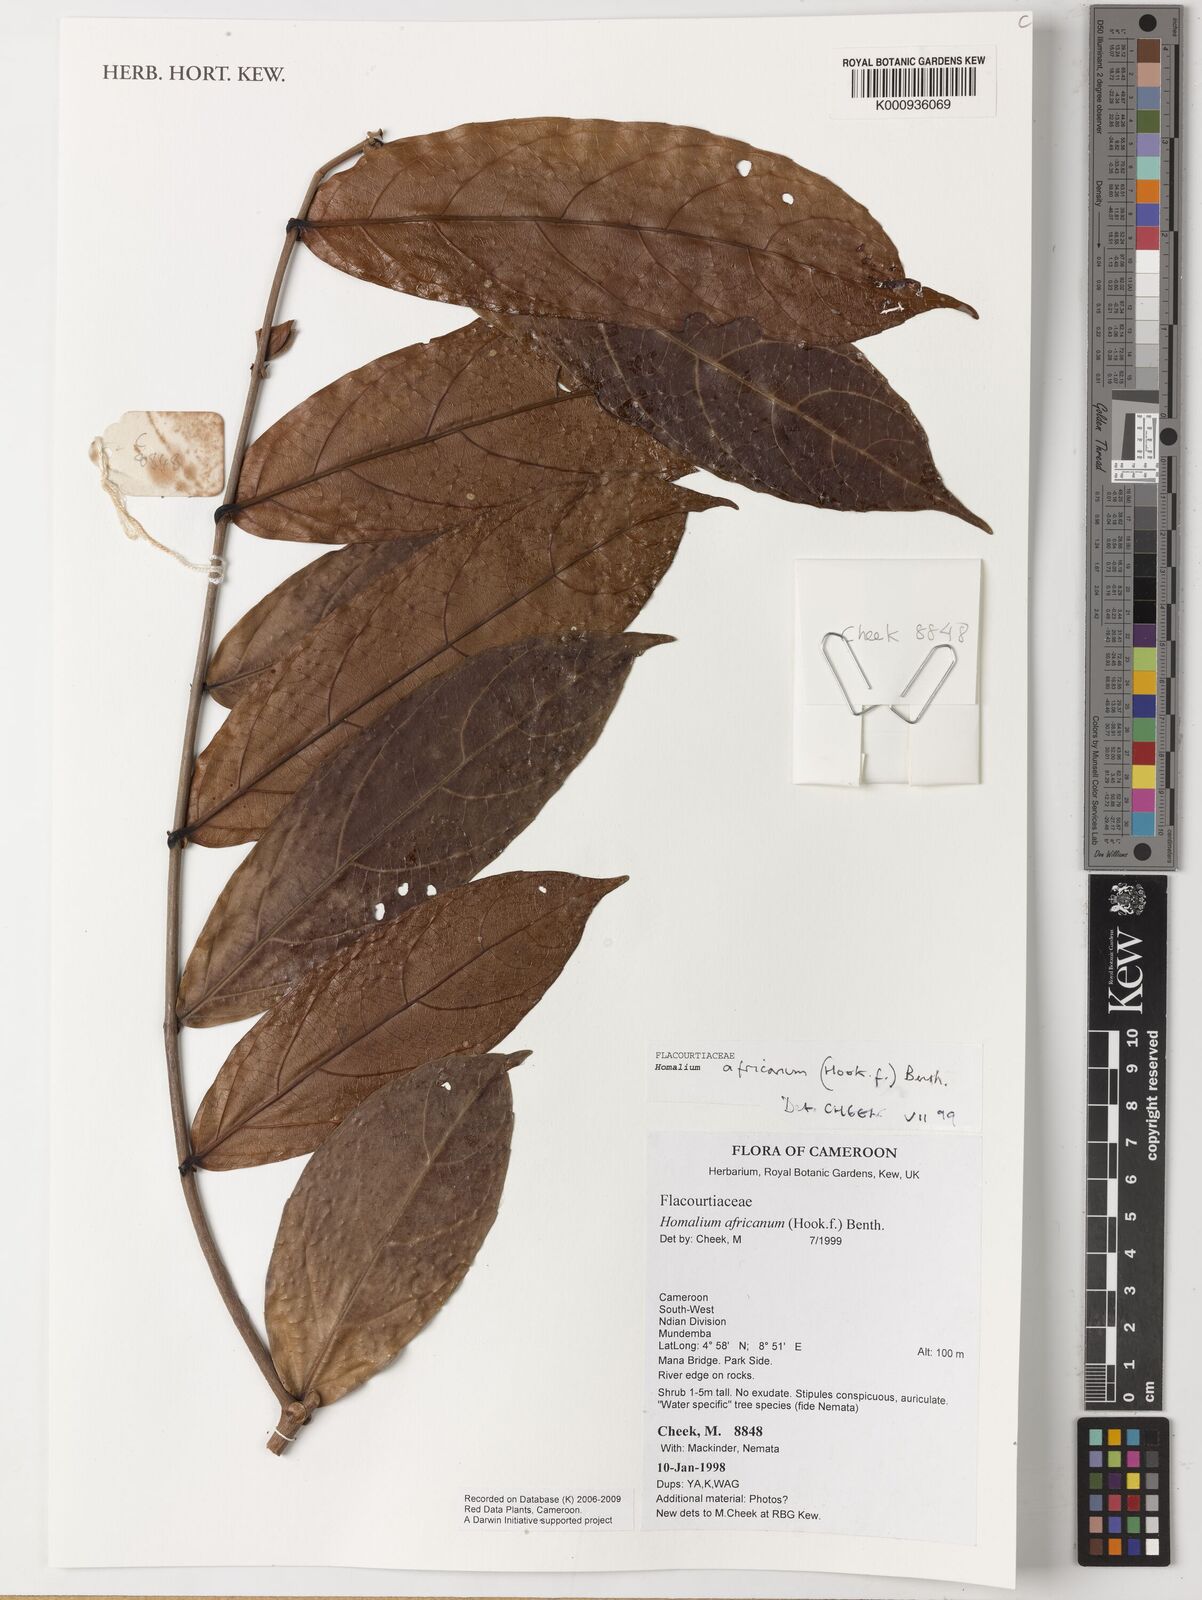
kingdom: Plantae
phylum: Tracheophyta
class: Magnoliopsida
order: Malpighiales
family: Salicaceae
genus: Homalium
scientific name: Homalium africanum
